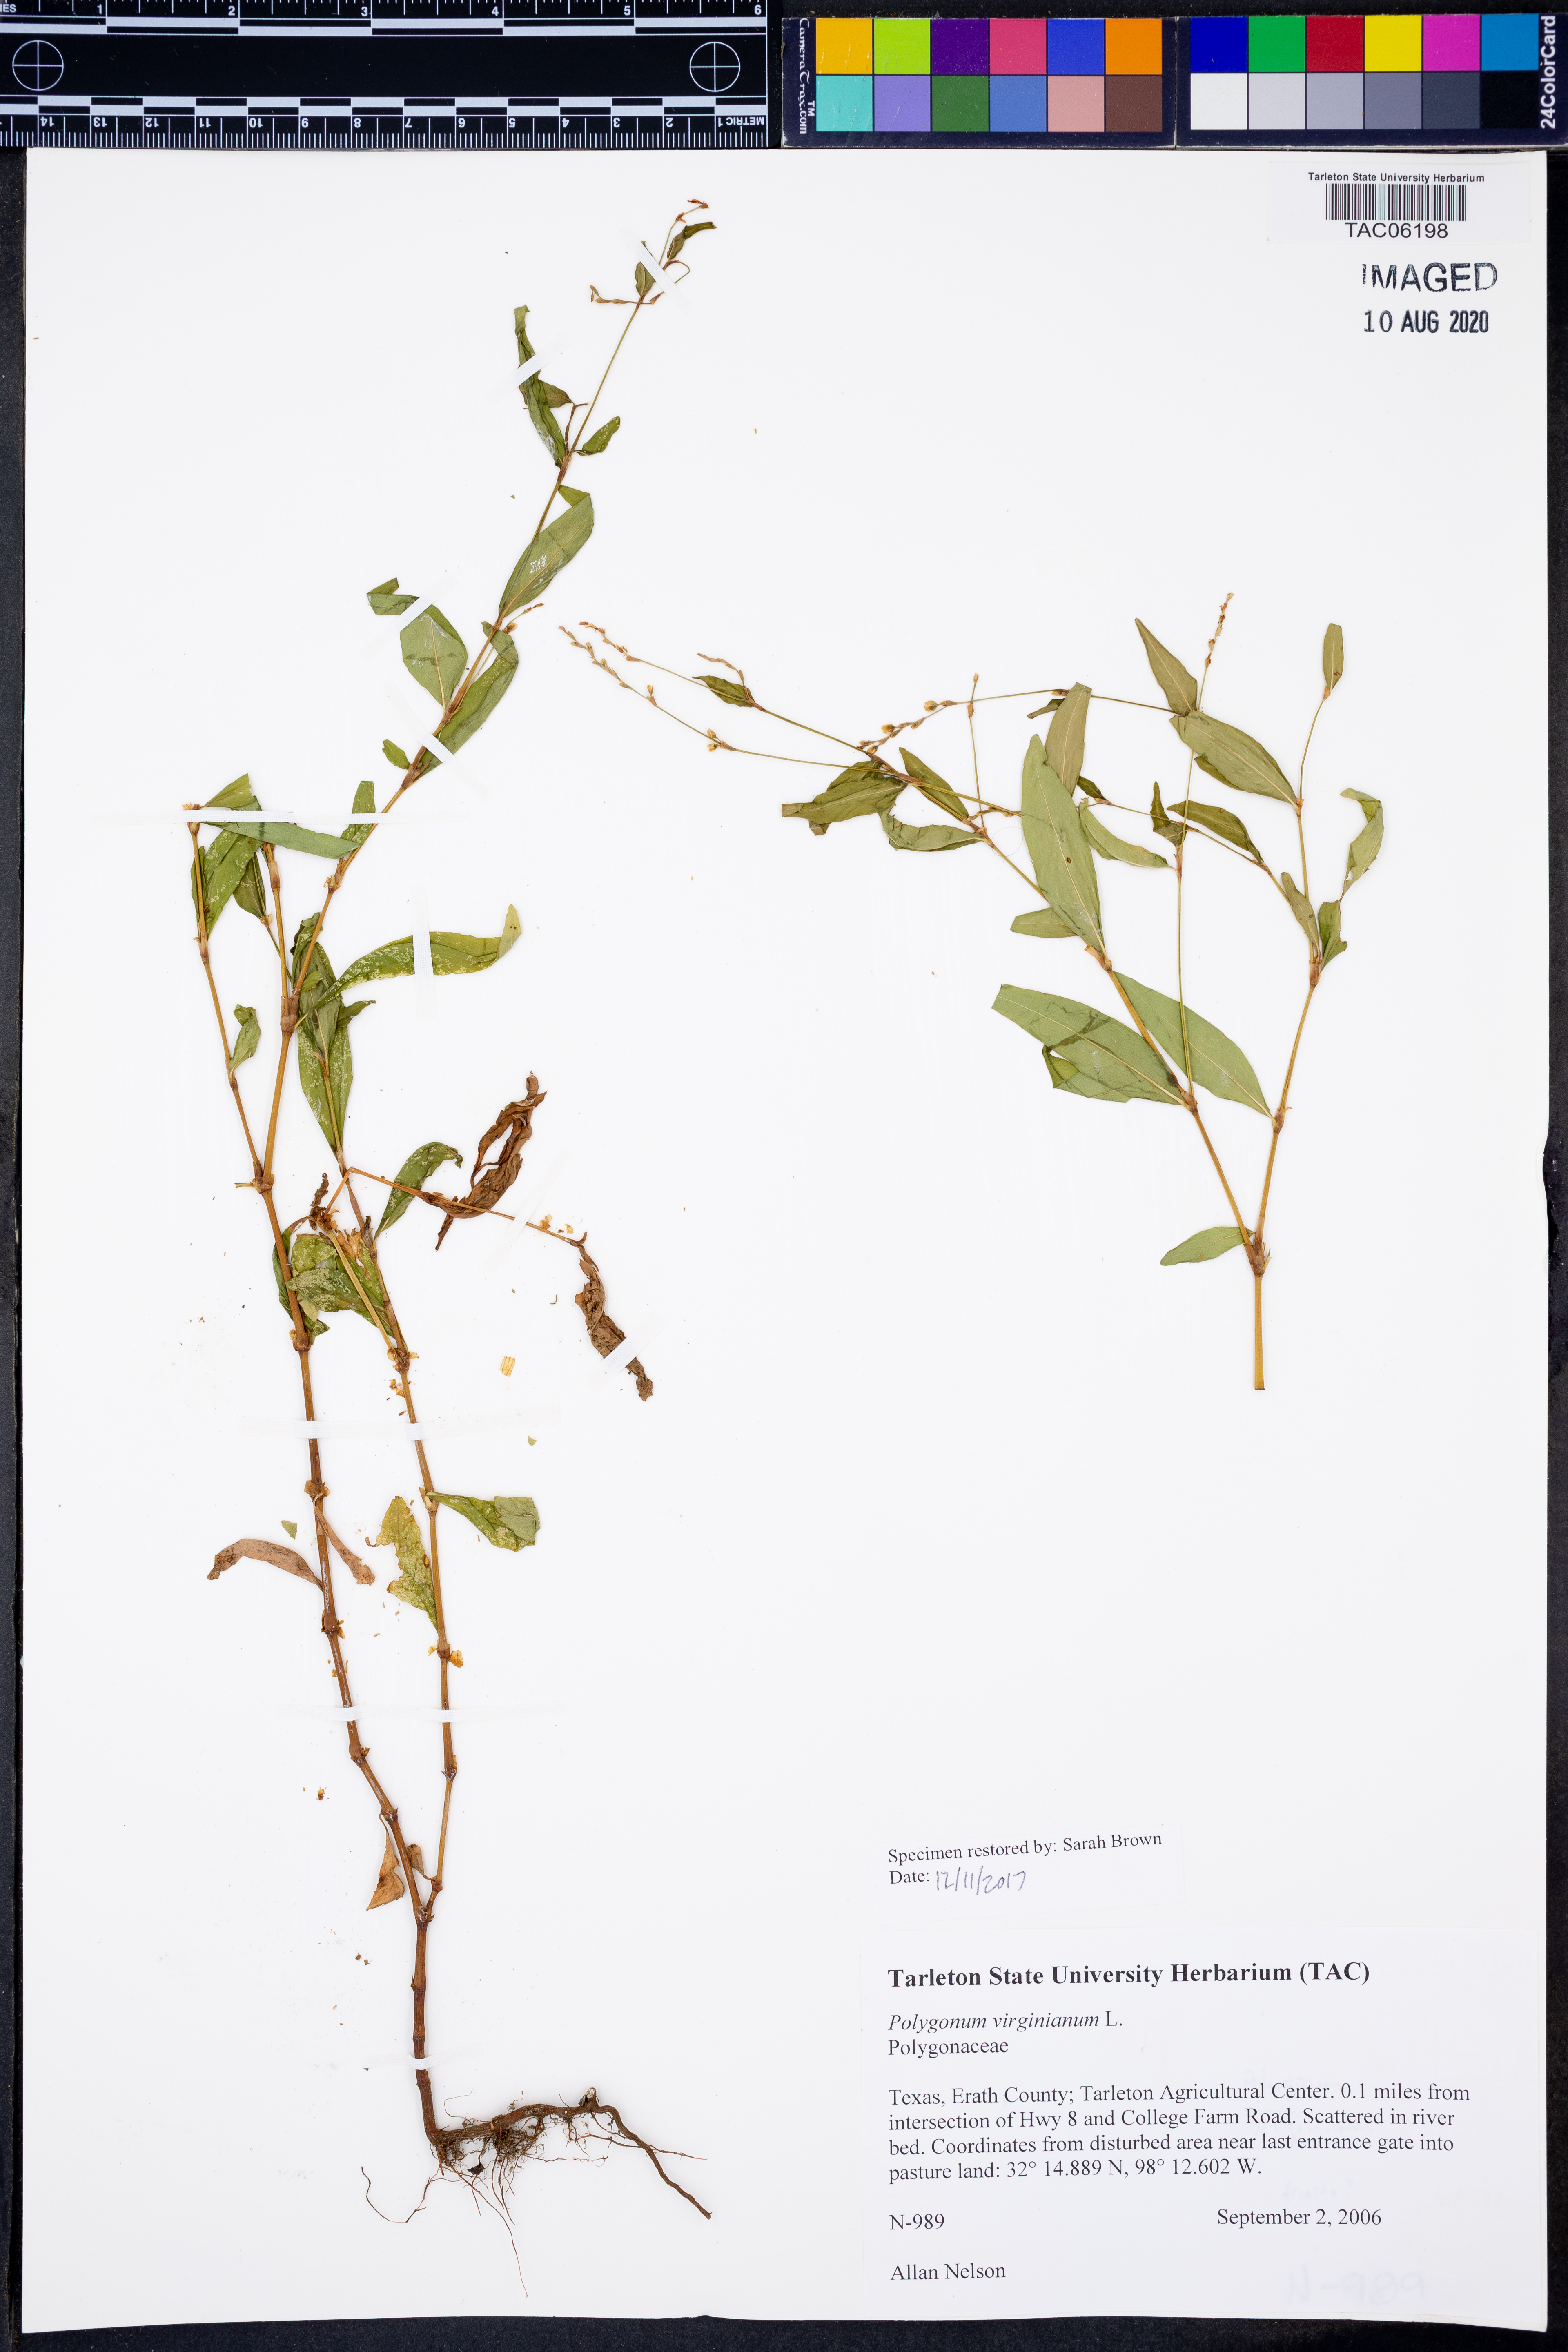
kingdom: Plantae
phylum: Tracheophyta
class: Magnoliopsida
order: Caryophyllales
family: Polygonaceae
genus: Persicaria
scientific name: Persicaria virginiana
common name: Jumpseed
